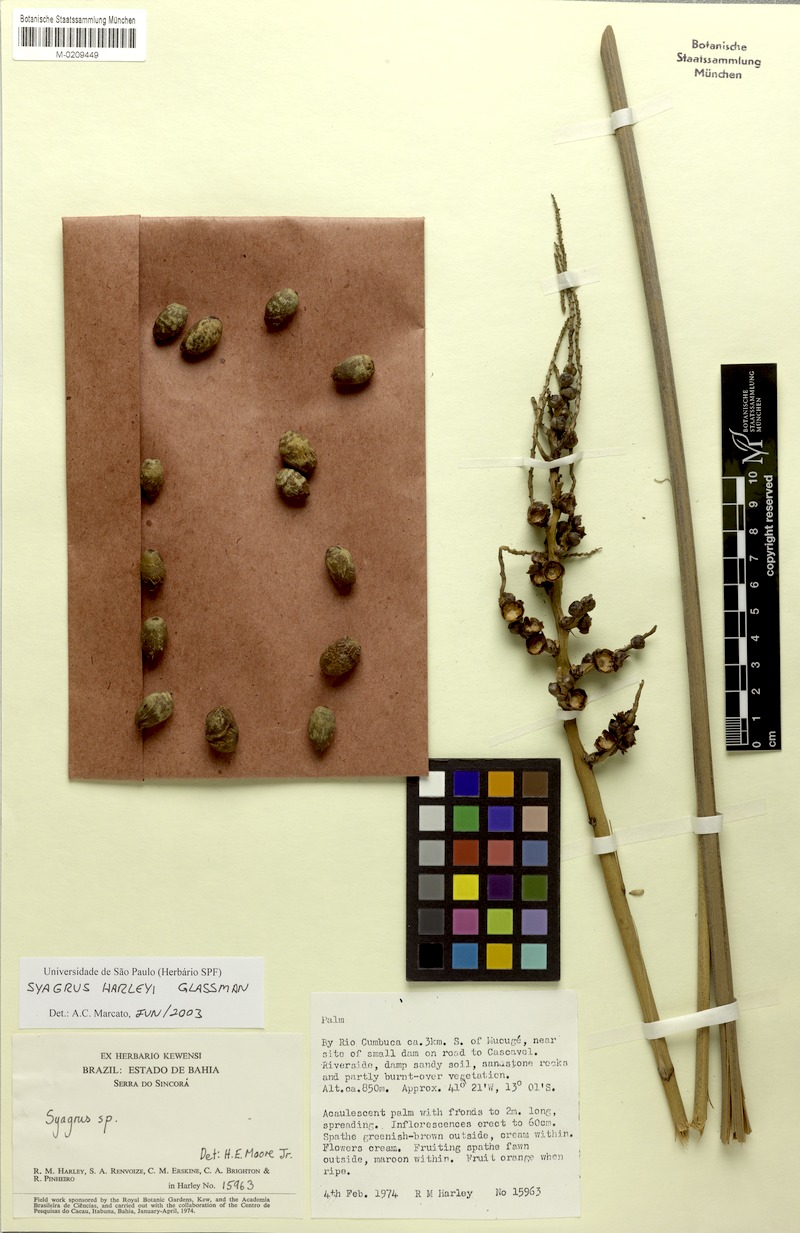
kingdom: Plantae
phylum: Tracheophyta
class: Liliopsida
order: Arecales
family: Arecaceae
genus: Syagrus
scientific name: Syagrus harleyi
